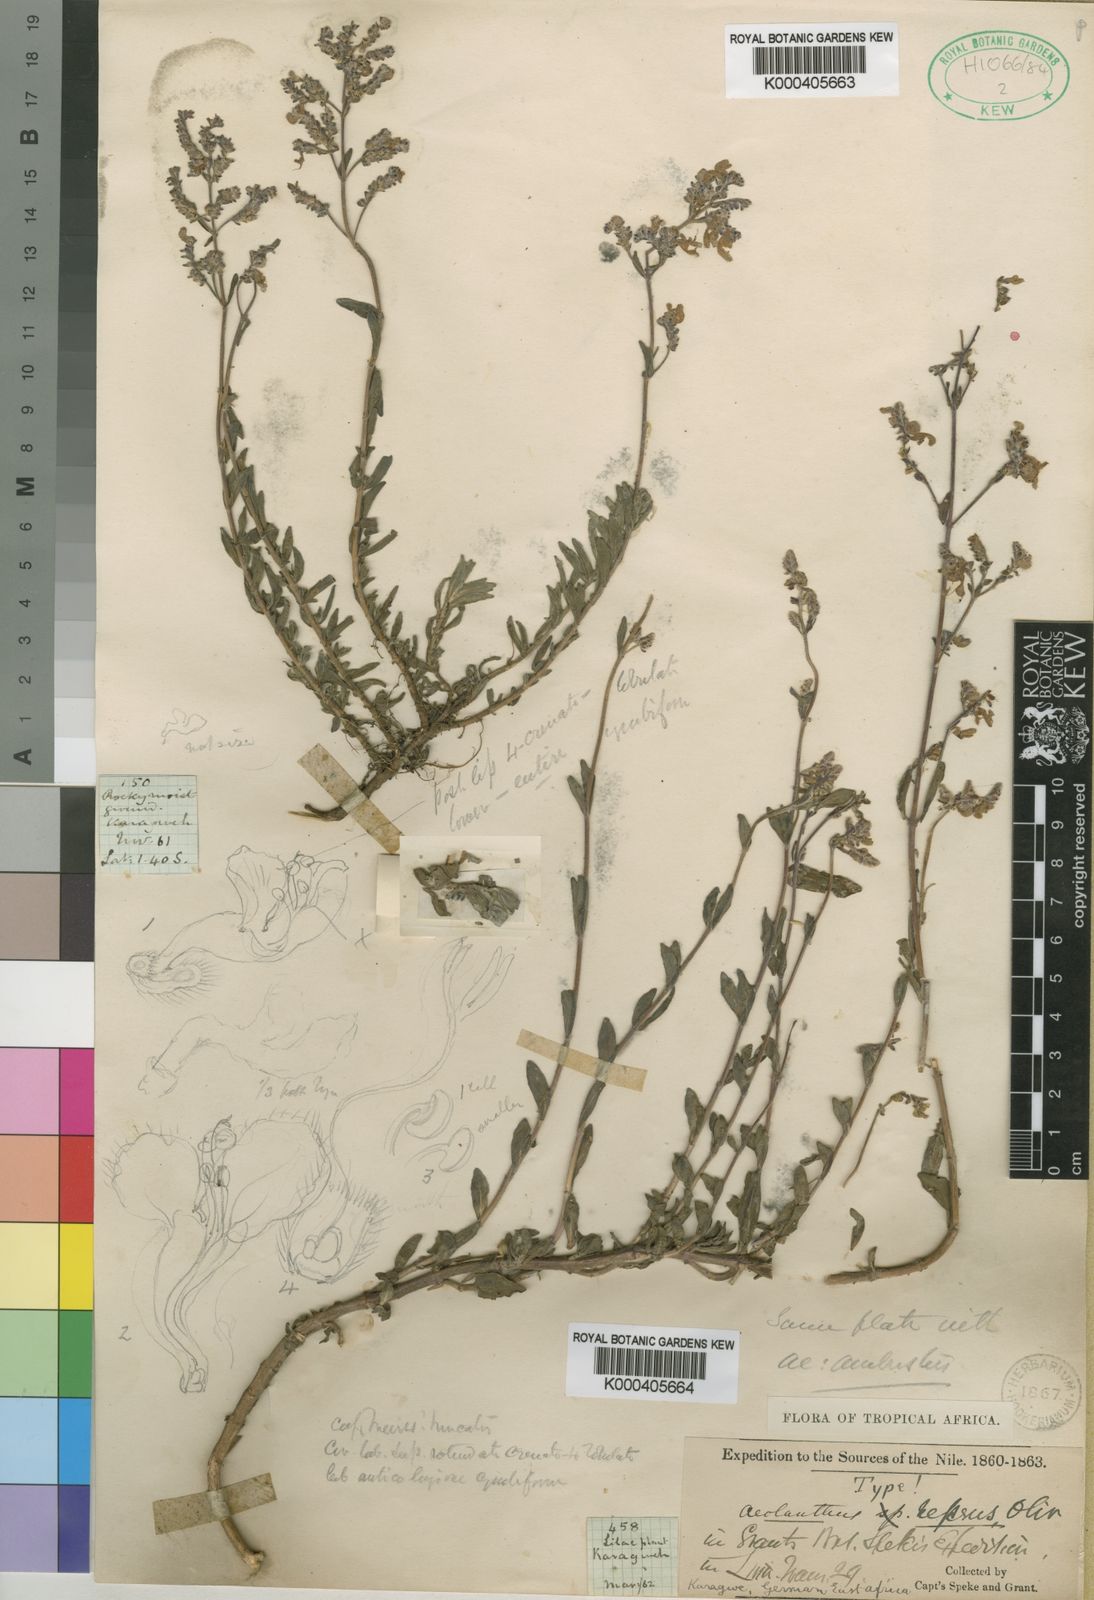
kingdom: Plantae
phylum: Tracheophyta
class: Magnoliopsida
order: Lamiales
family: Lamiaceae
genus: Aeollanthus
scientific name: Aeollanthus repens
